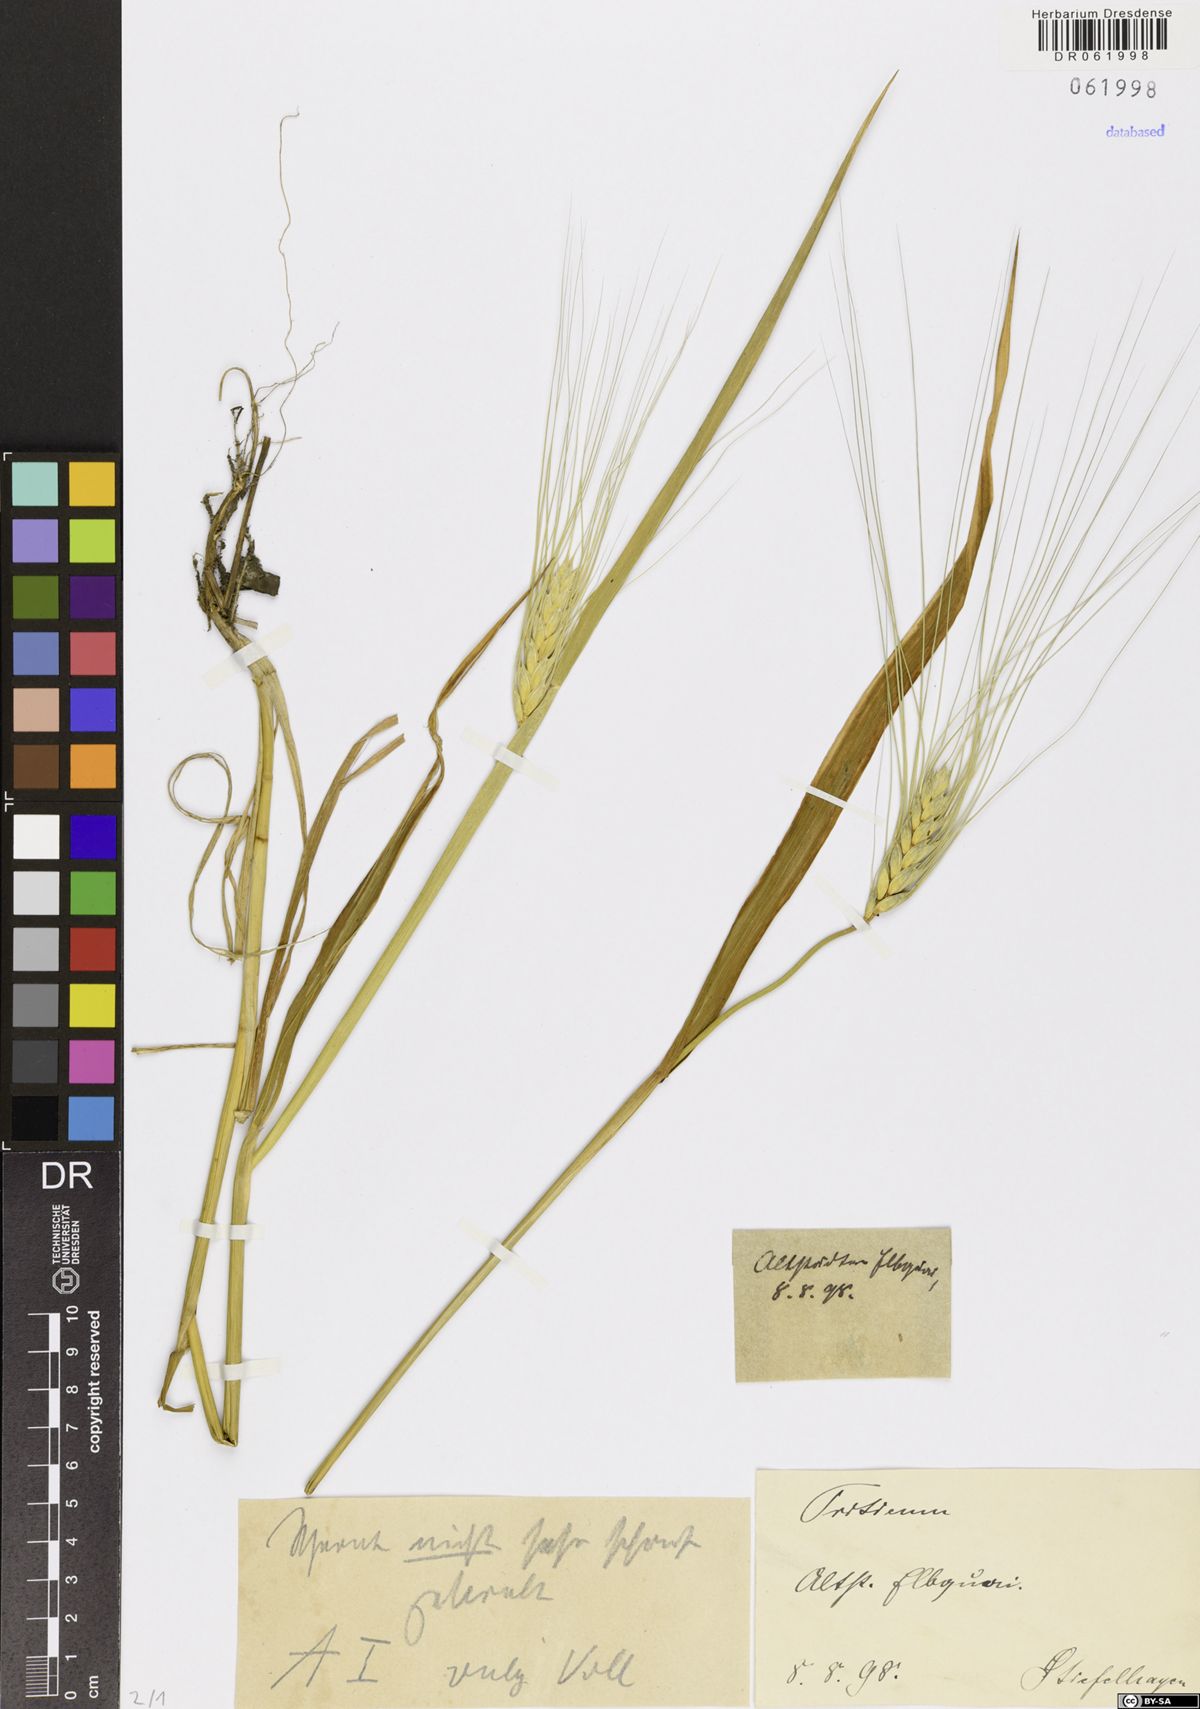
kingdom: Plantae
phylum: Tracheophyta
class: Liliopsida
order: Poales
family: Poaceae
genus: Triticum
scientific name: Triticum
